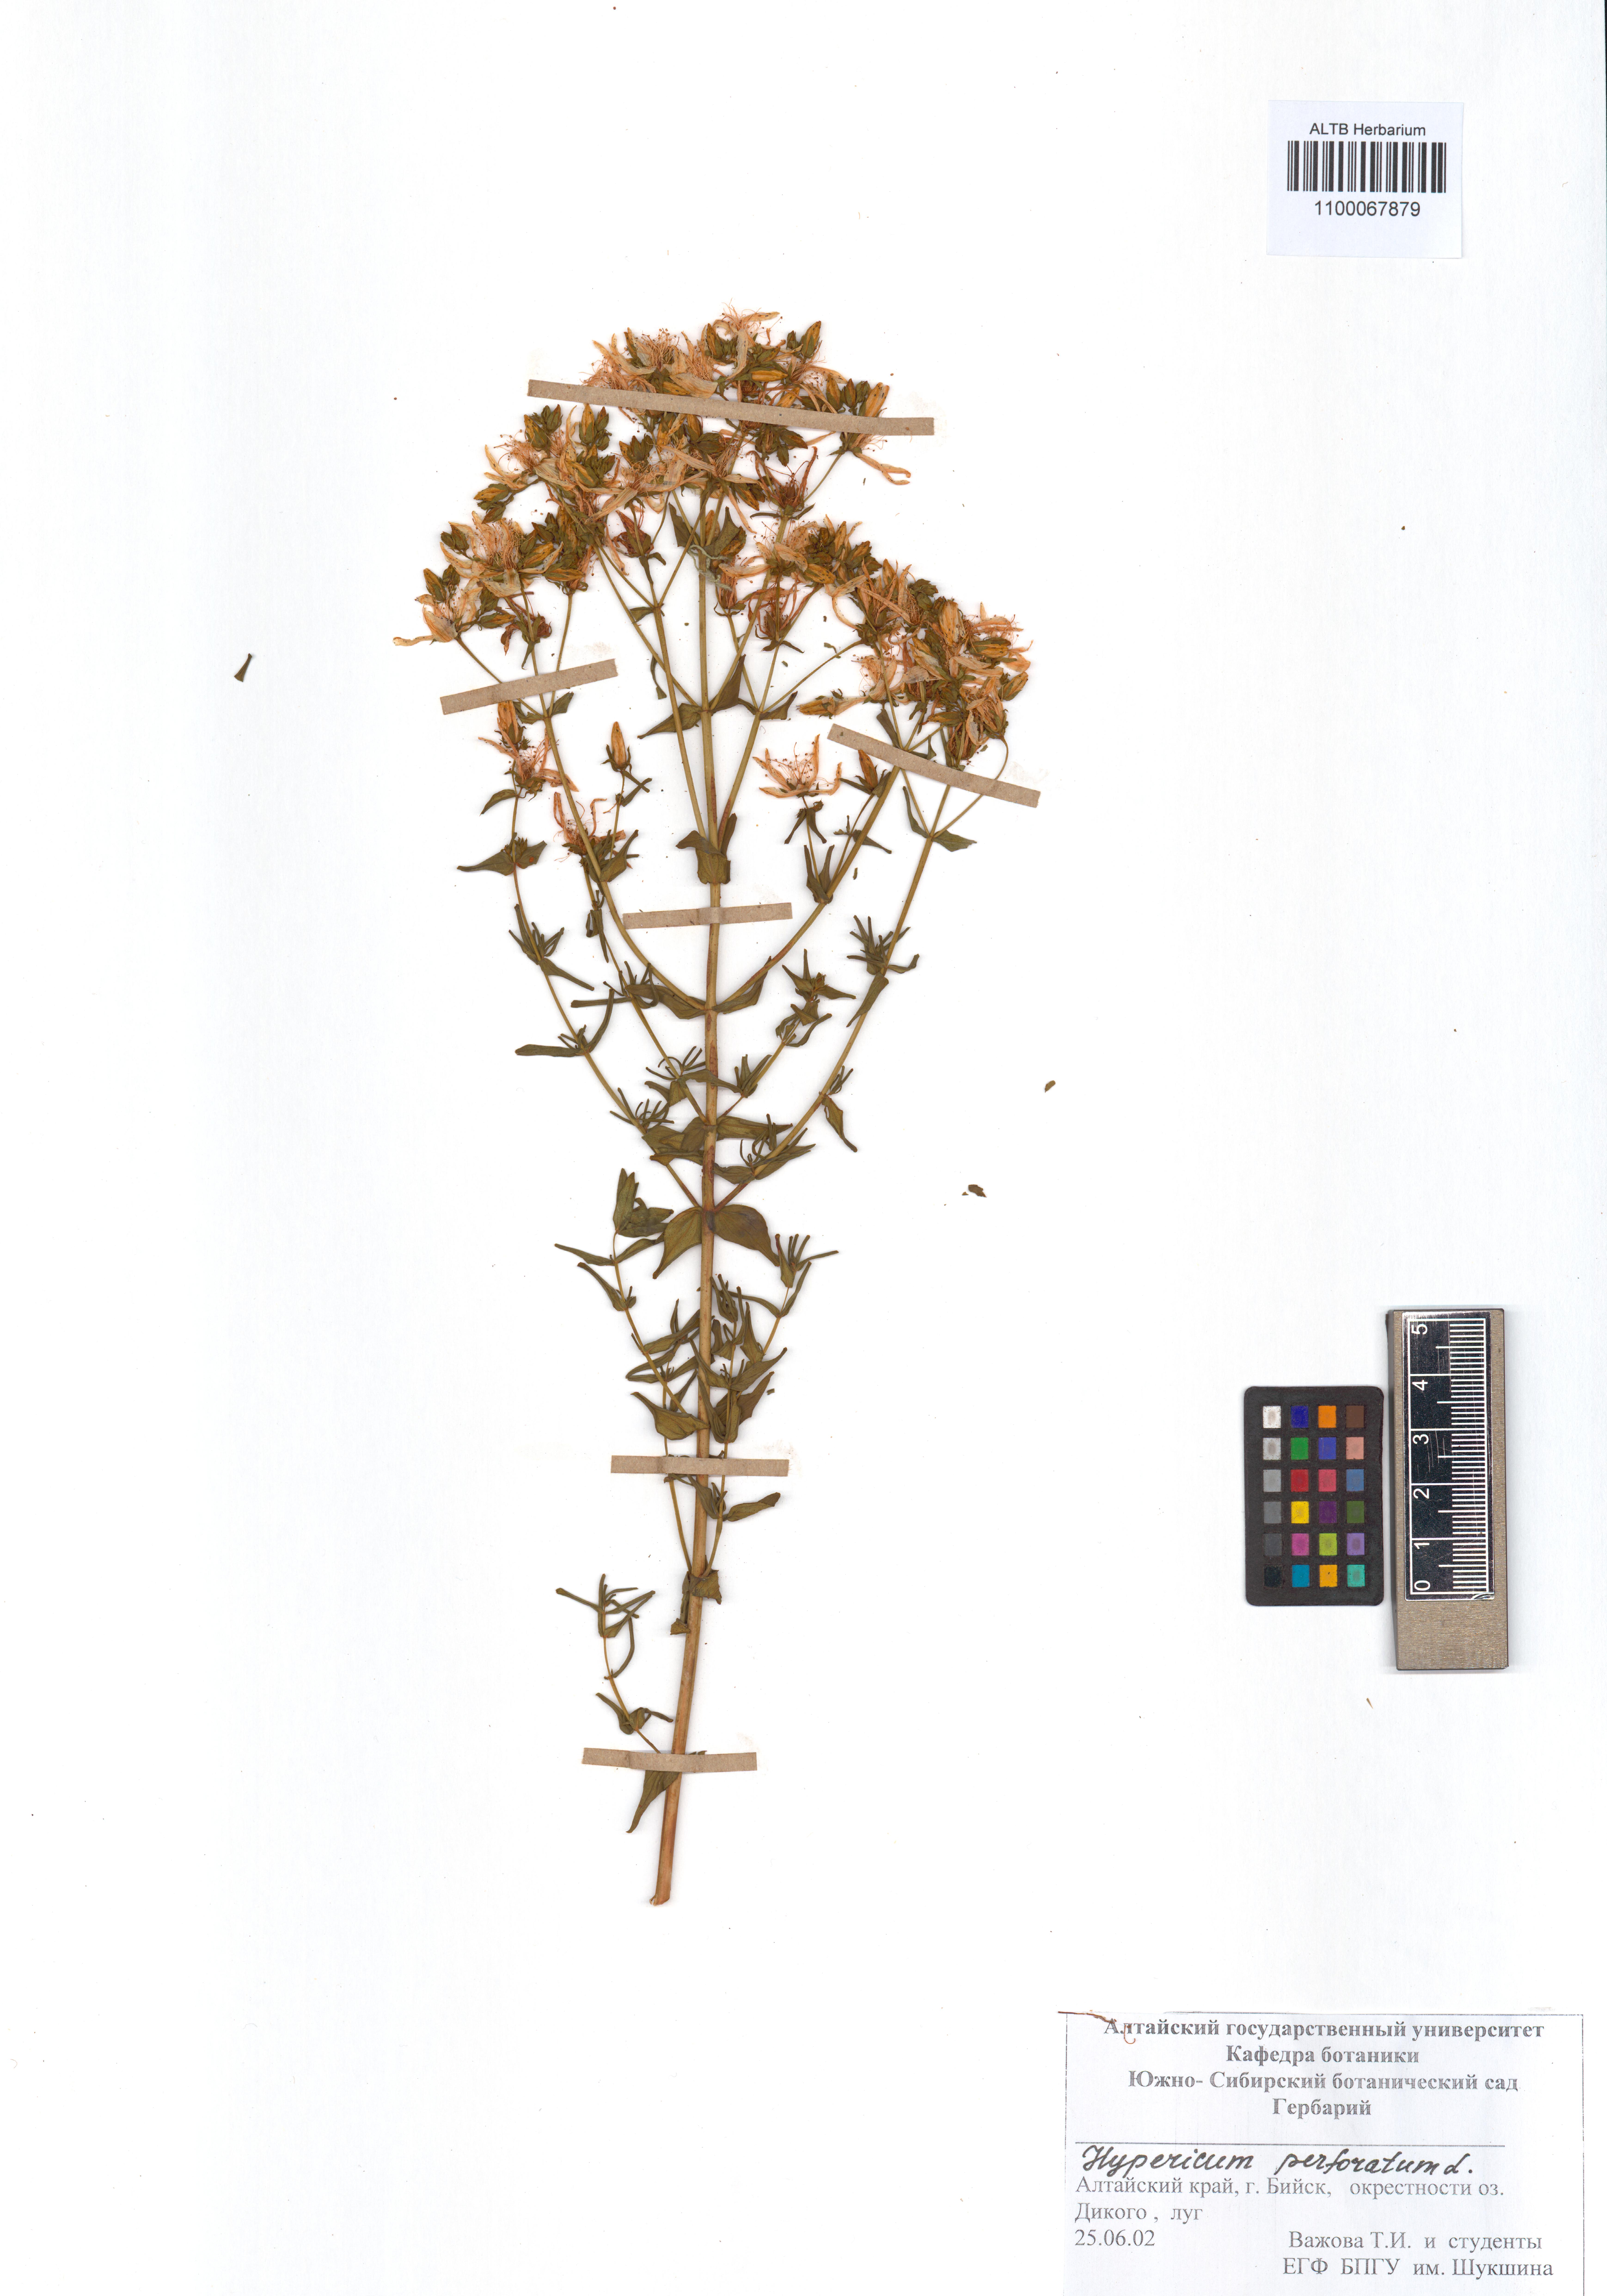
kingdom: Plantae
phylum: Tracheophyta
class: Magnoliopsida
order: Malpighiales
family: Hypericaceae
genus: Hypericum
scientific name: Hypericum perforatum
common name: Common st. johnswort
